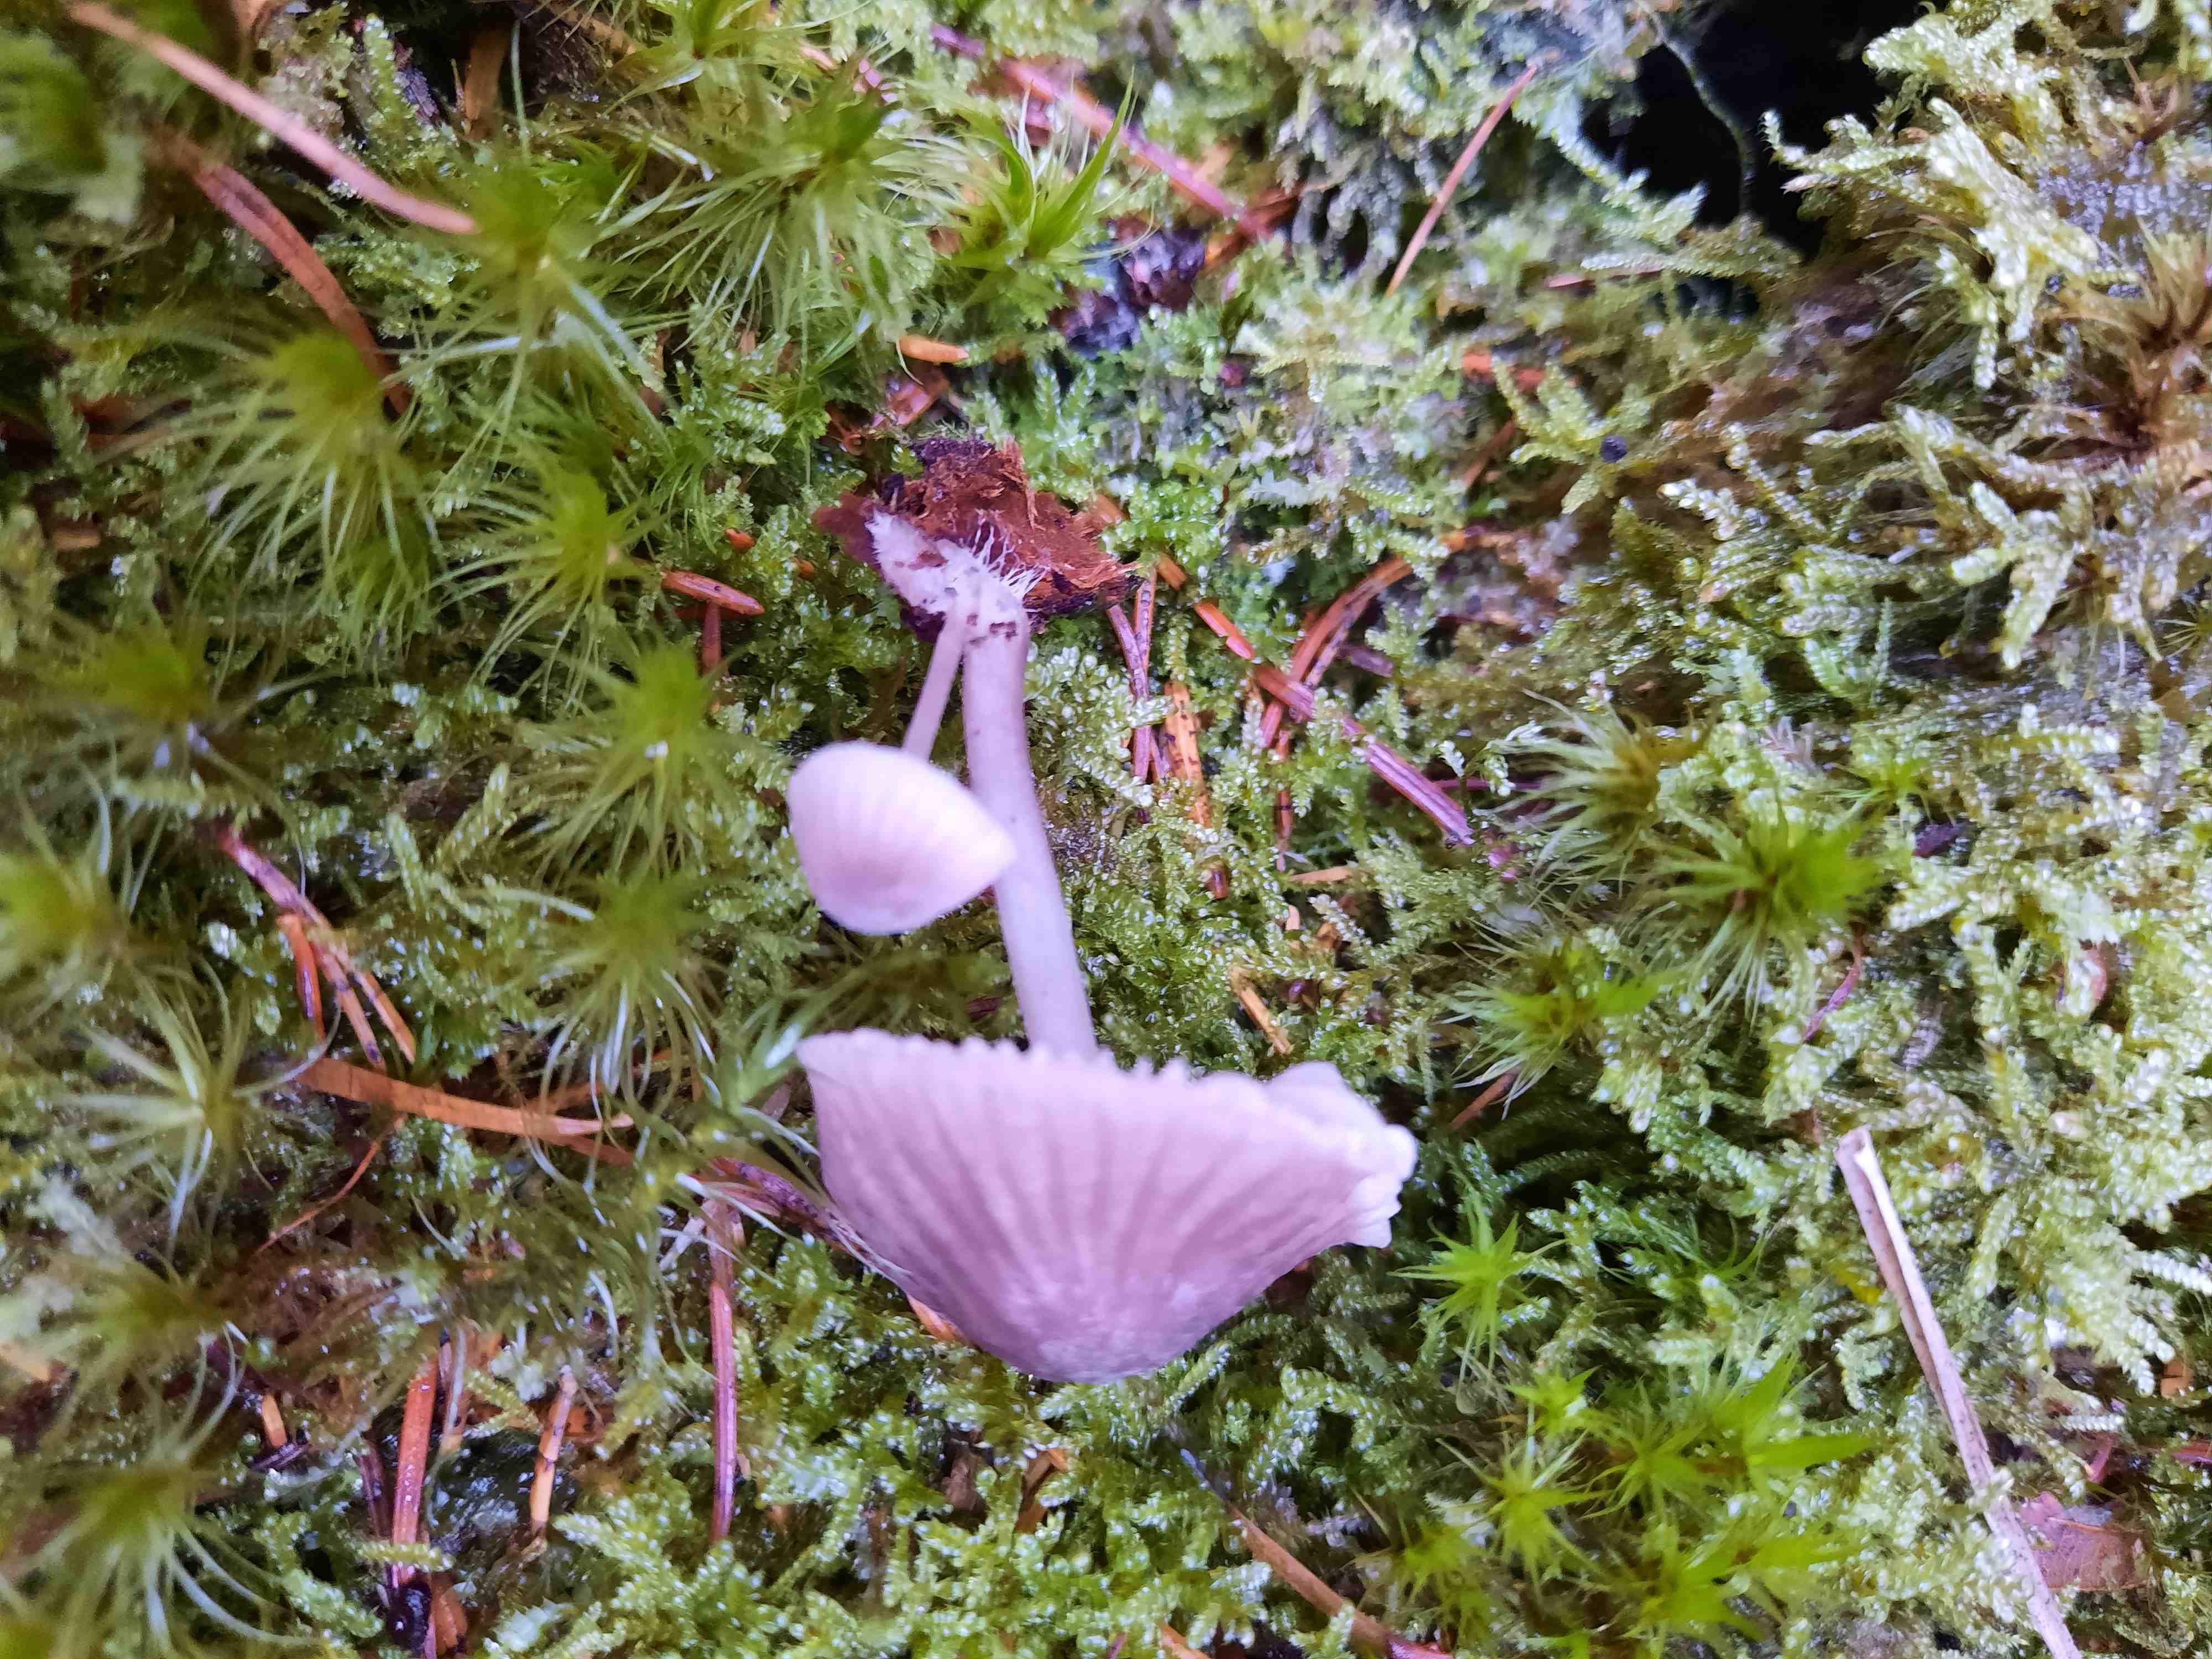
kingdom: Fungi
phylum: Basidiomycota
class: Agaricomycetes
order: Agaricales
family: Mycenaceae
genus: Mycena
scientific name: Mycena rubromarginata
